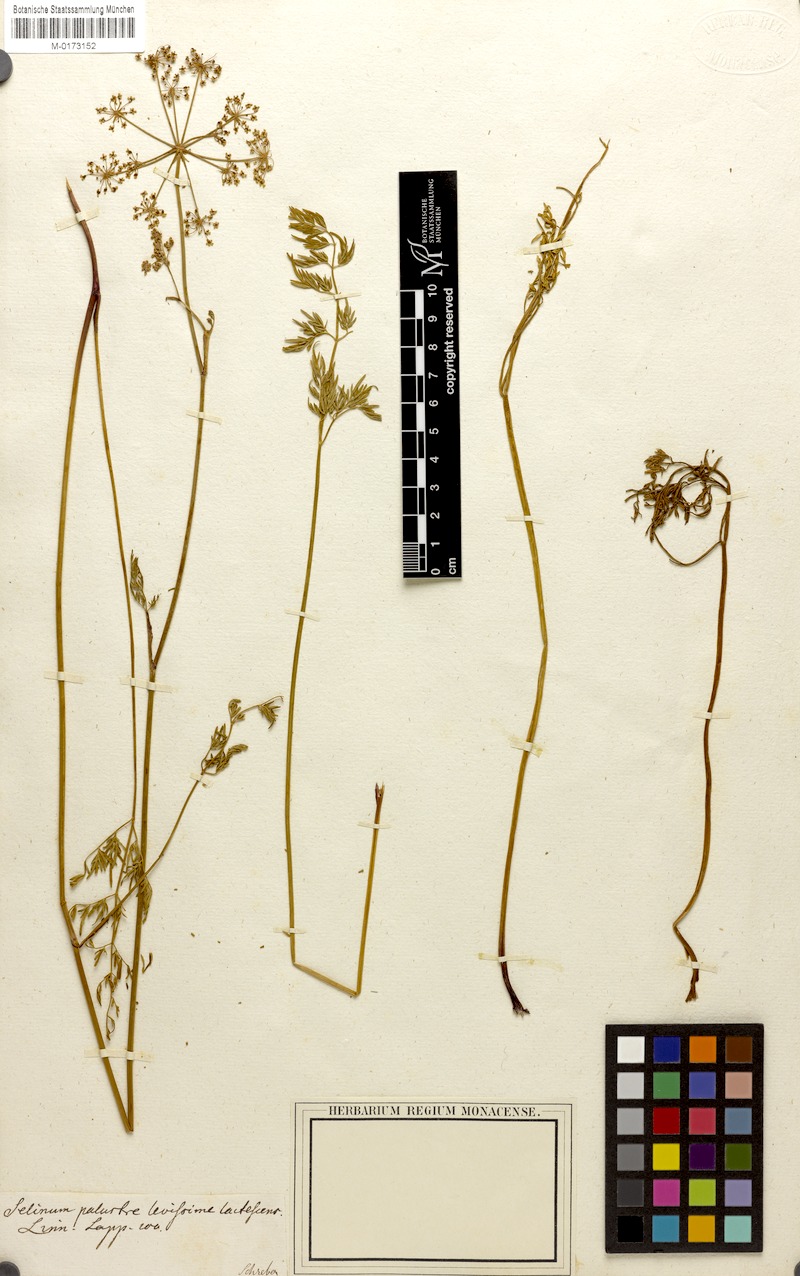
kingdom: Plantae
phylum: Tracheophyta
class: Magnoliopsida
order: Apiales
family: Apiaceae
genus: Thysselinum
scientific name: Thysselinum palustre
